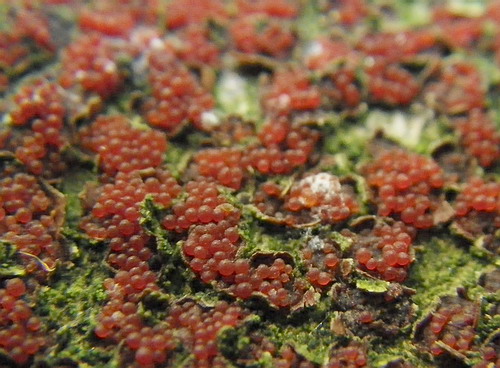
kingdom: Fungi
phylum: Ascomycota
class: Sordariomycetes
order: Hypocreales
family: Nectriaceae
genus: Neonectria
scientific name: Neonectria coccinea
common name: bøgebark-cinnobersvamp
